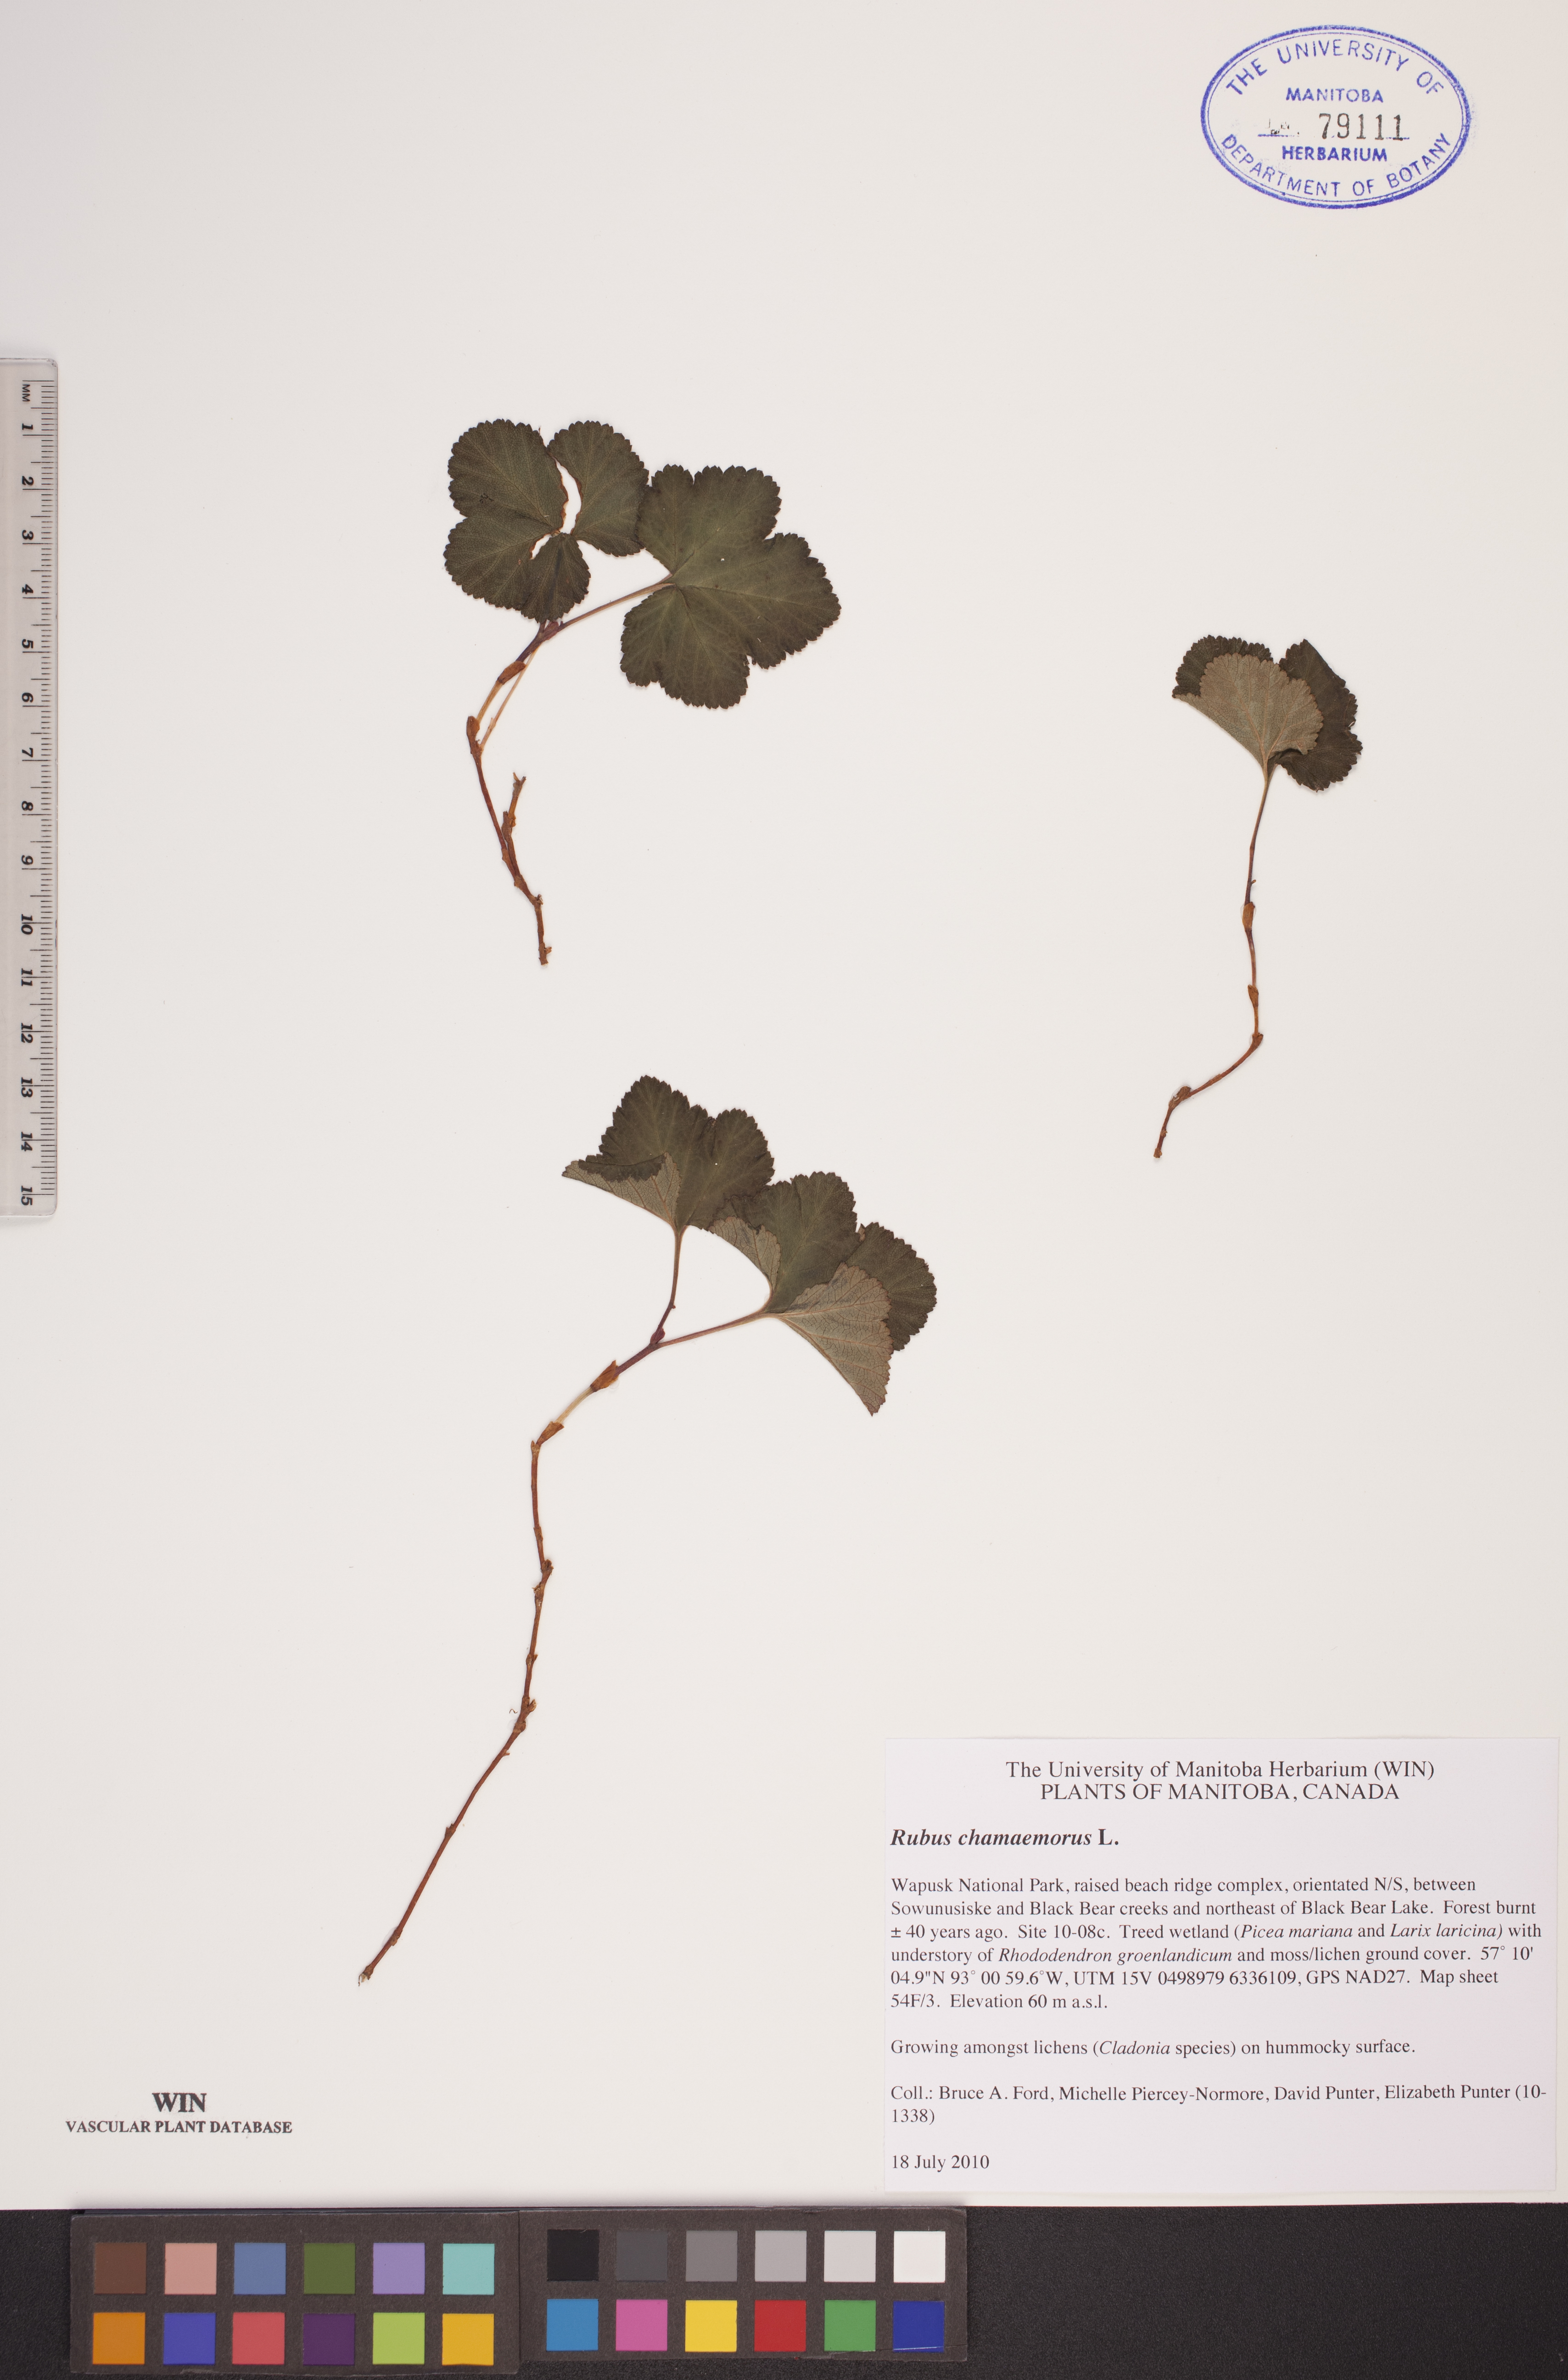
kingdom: Plantae
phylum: Tracheophyta
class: Magnoliopsida
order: Rosales
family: Rosaceae
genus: Rubus
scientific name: Rubus chamaemorus
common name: Cloudberry
